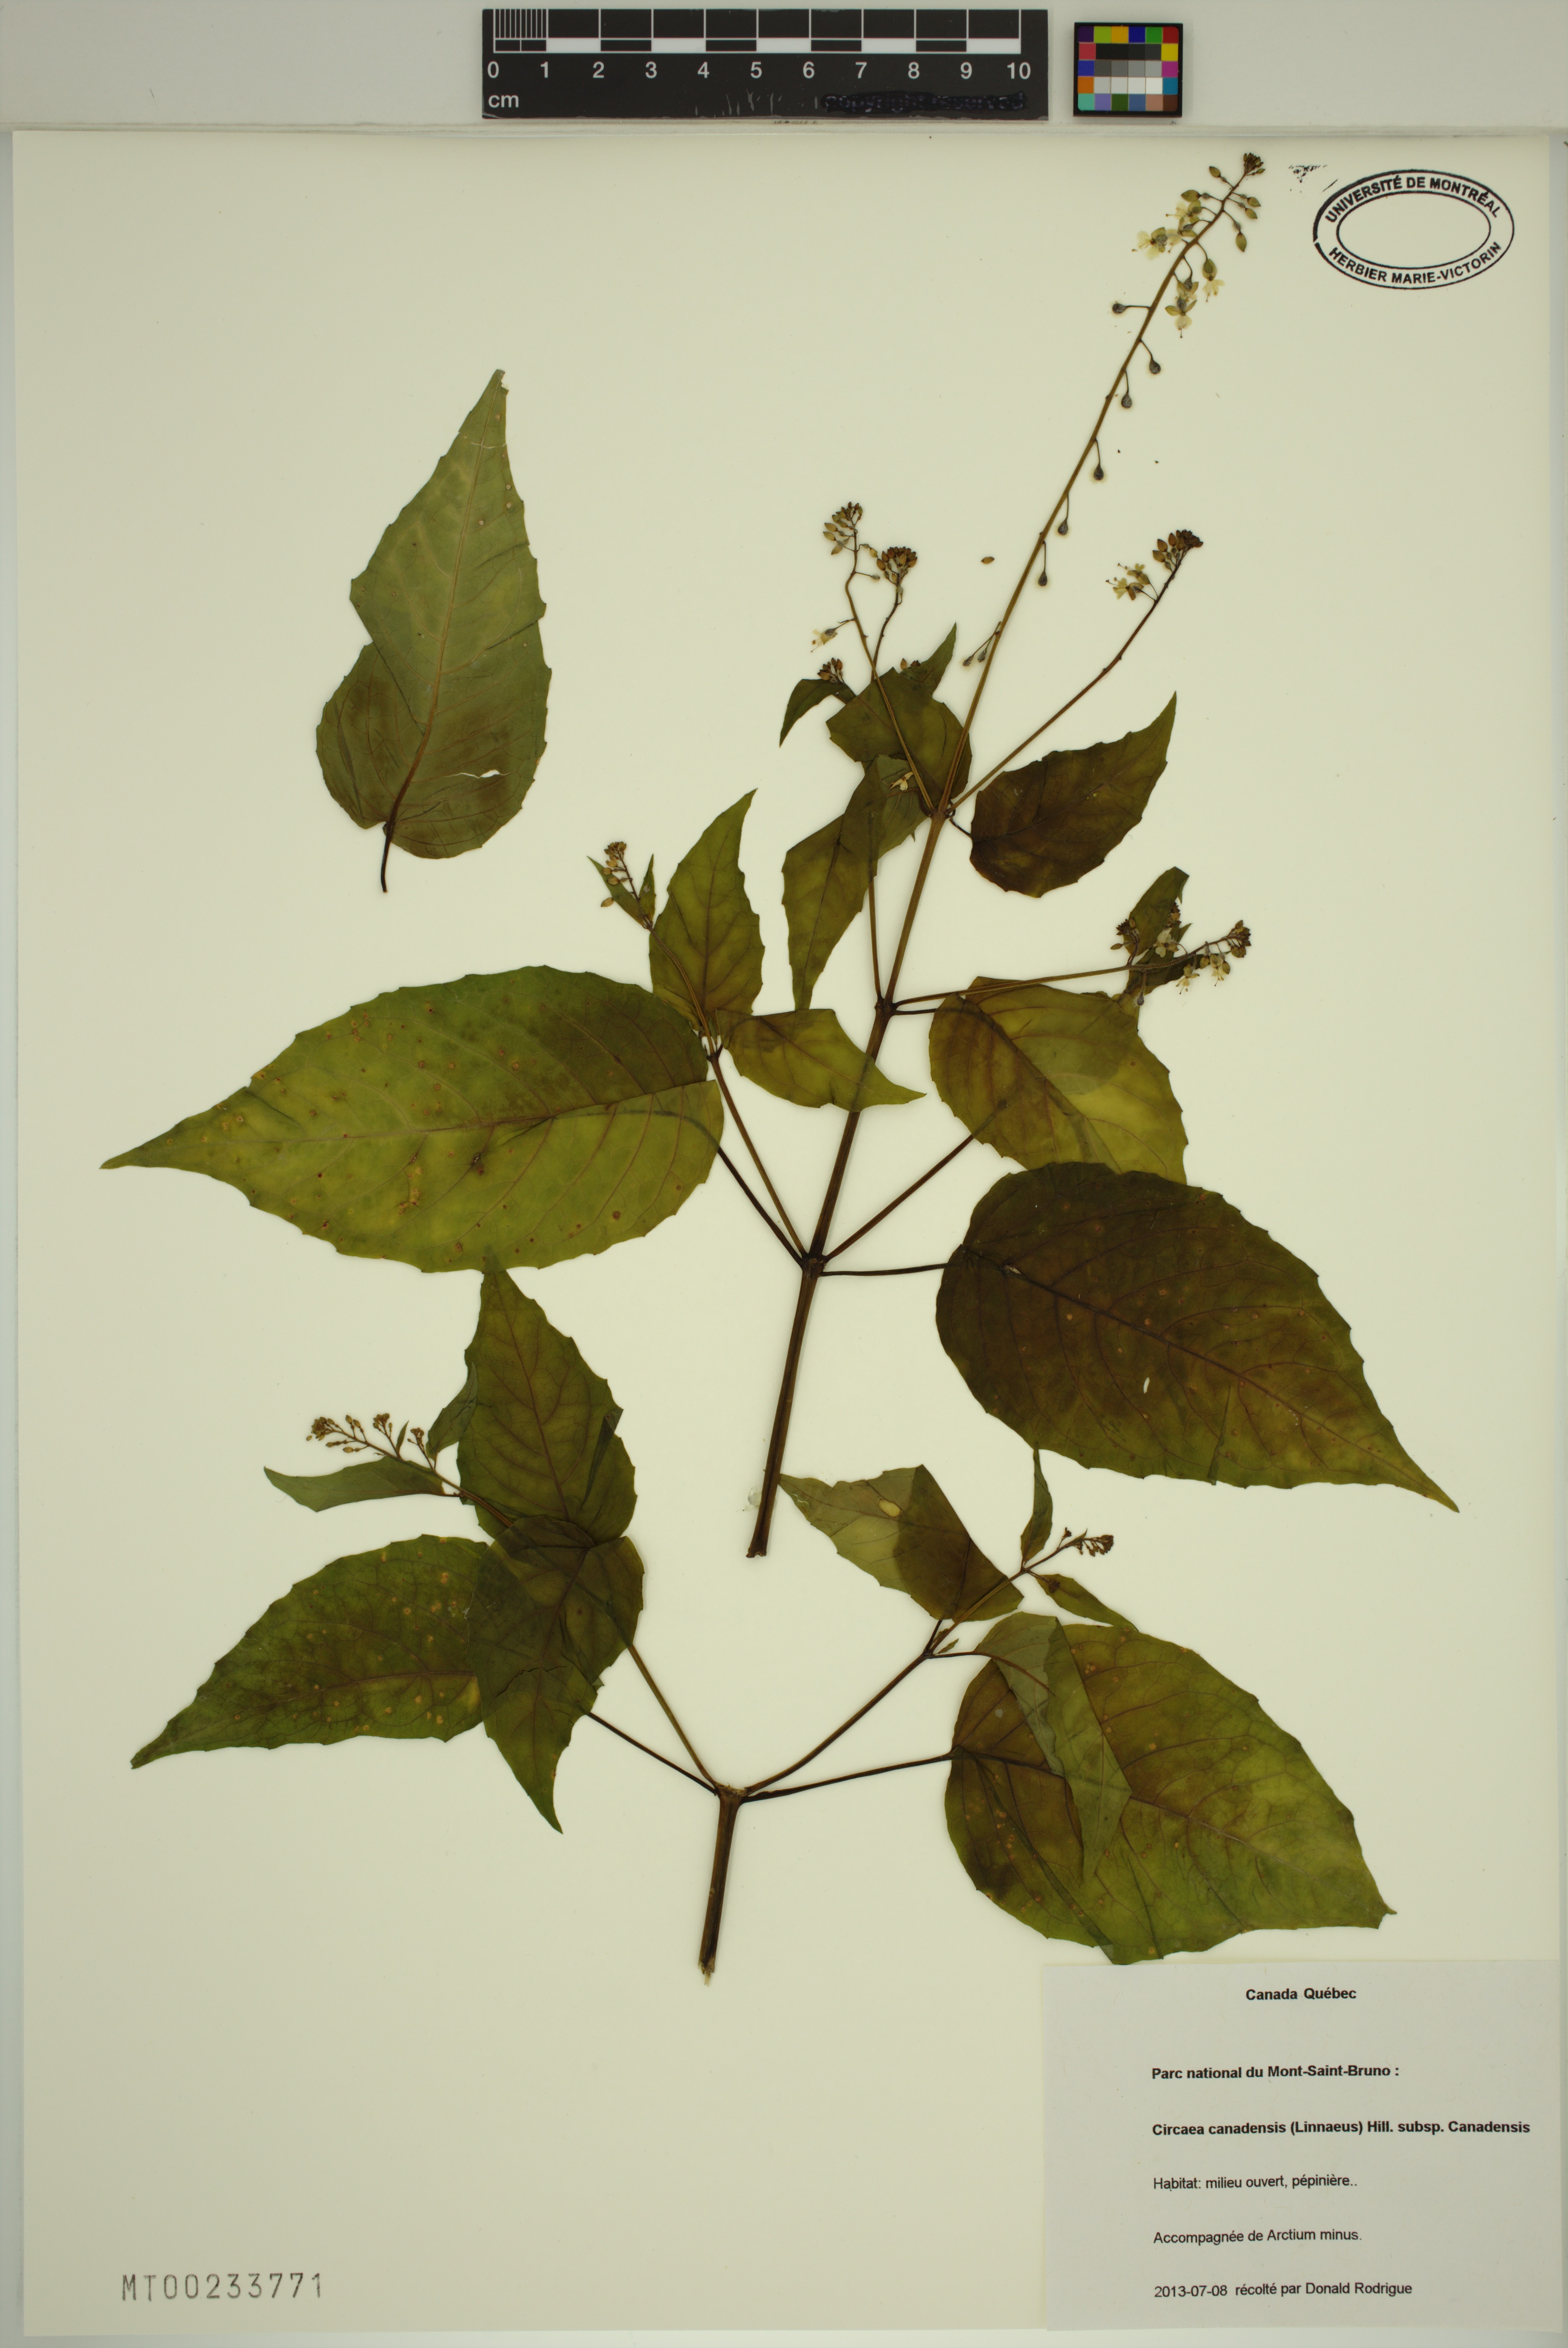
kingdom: Plantae
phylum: Tracheophyta
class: Magnoliopsida
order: Myrtales
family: Onagraceae
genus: Circaea
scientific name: Circaea canadensis
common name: Broad-leaved enchanter's nightshade
